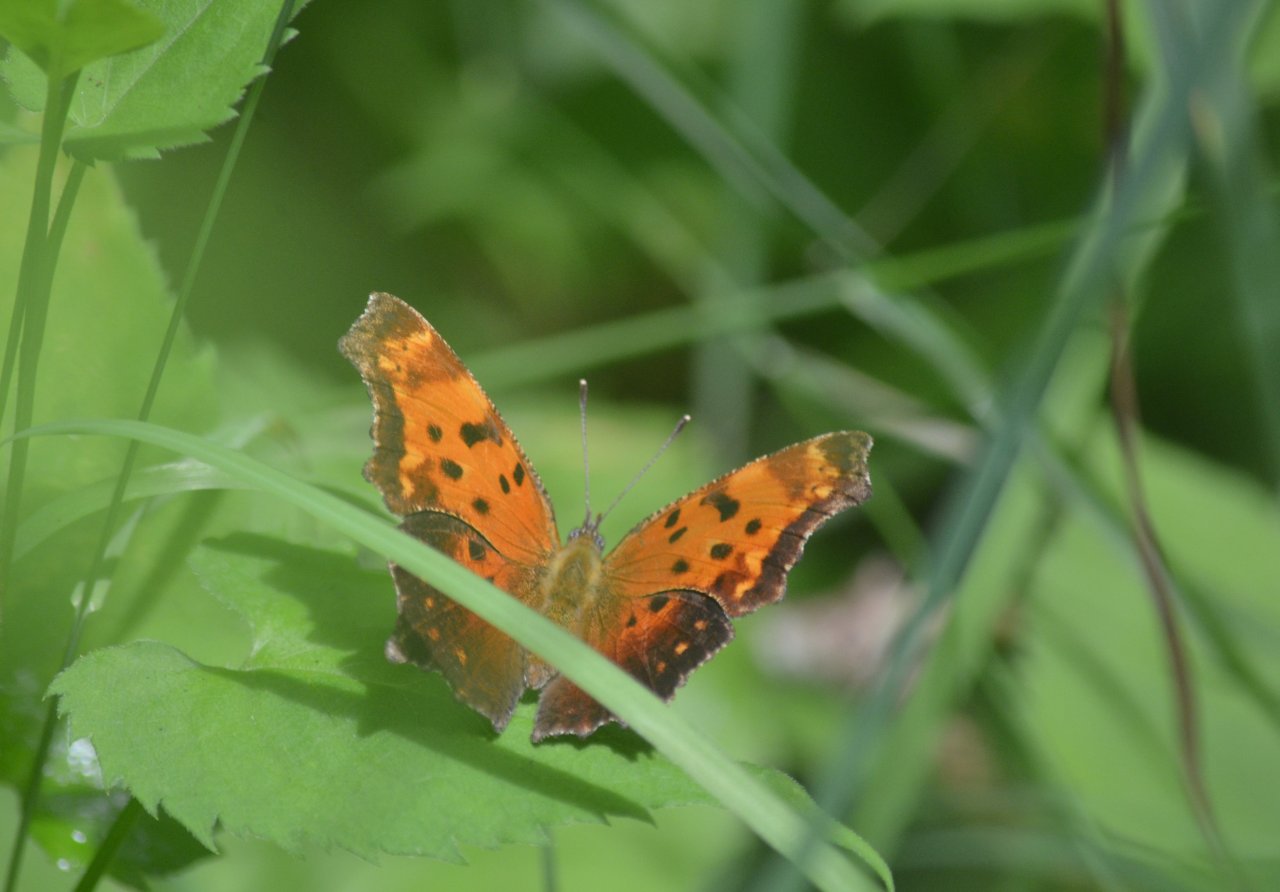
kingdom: Animalia
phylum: Arthropoda
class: Insecta
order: Lepidoptera
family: Nymphalidae
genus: Polygonia
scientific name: Polygonia progne
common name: Gray Comma
